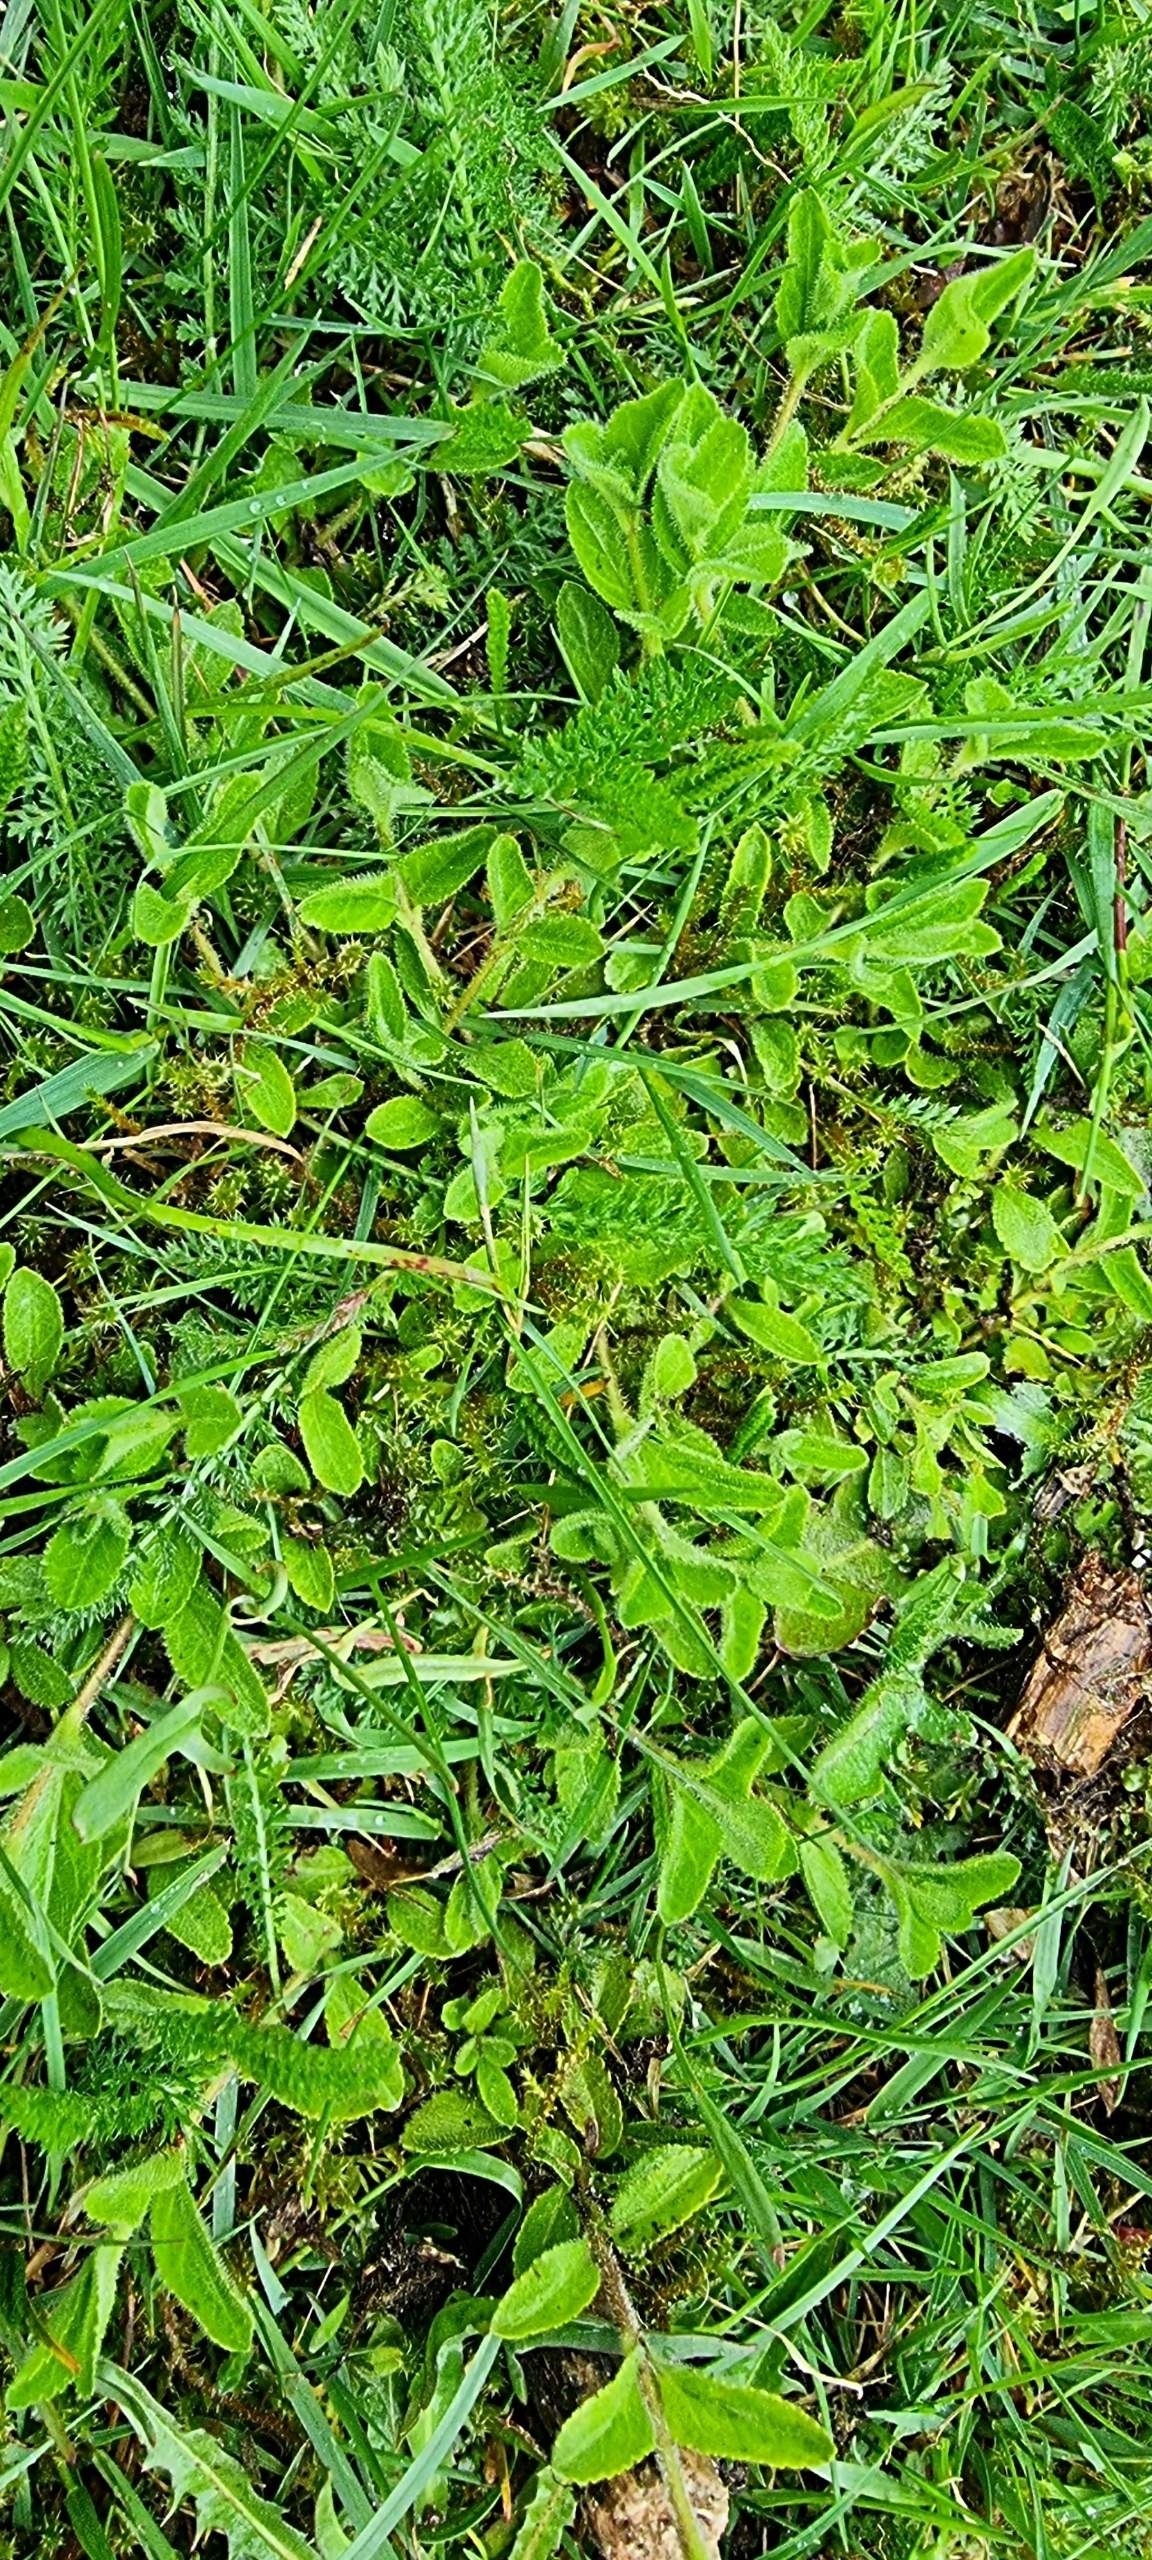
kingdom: Plantae
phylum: Tracheophyta
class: Magnoliopsida
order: Lamiales
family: Plantaginaceae
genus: Veronica
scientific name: Veronica officinalis
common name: Læge-ærenpris
